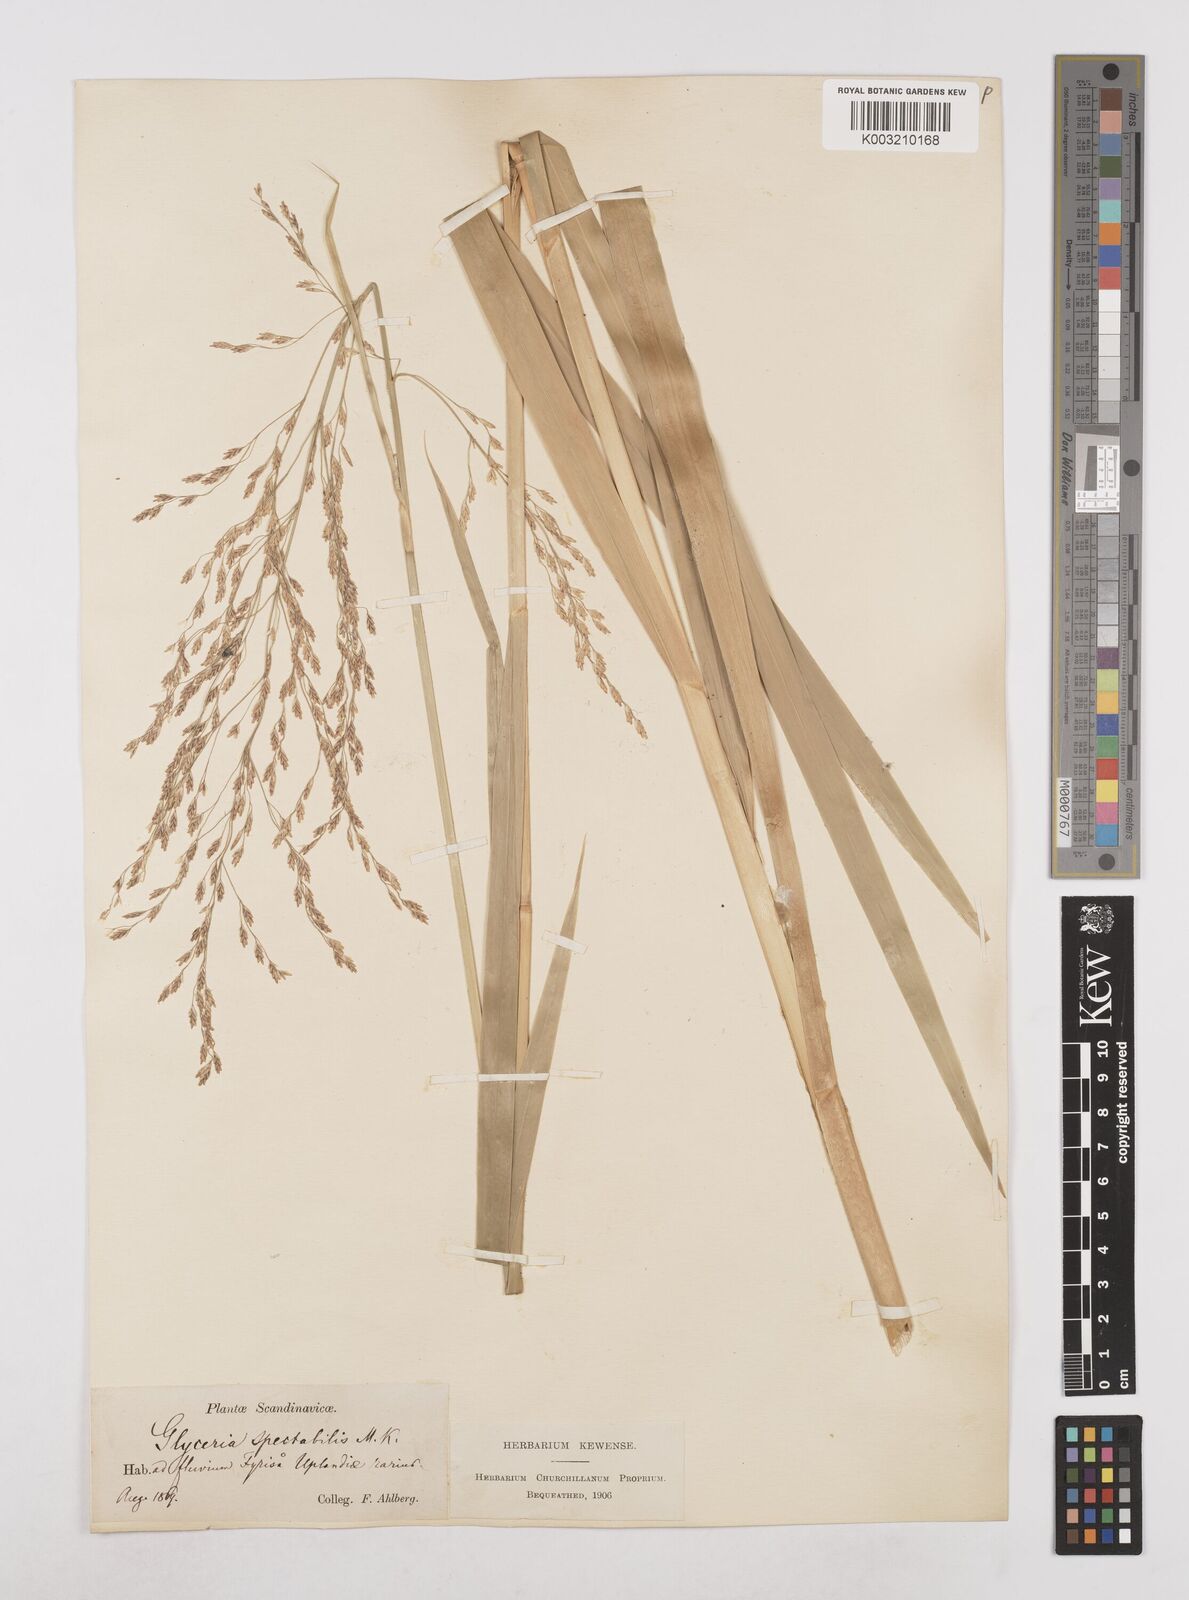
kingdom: Plantae
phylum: Tracheophyta
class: Liliopsida
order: Poales
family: Poaceae
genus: Glyceria
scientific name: Glyceria maxima
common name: Reed mannagrass
